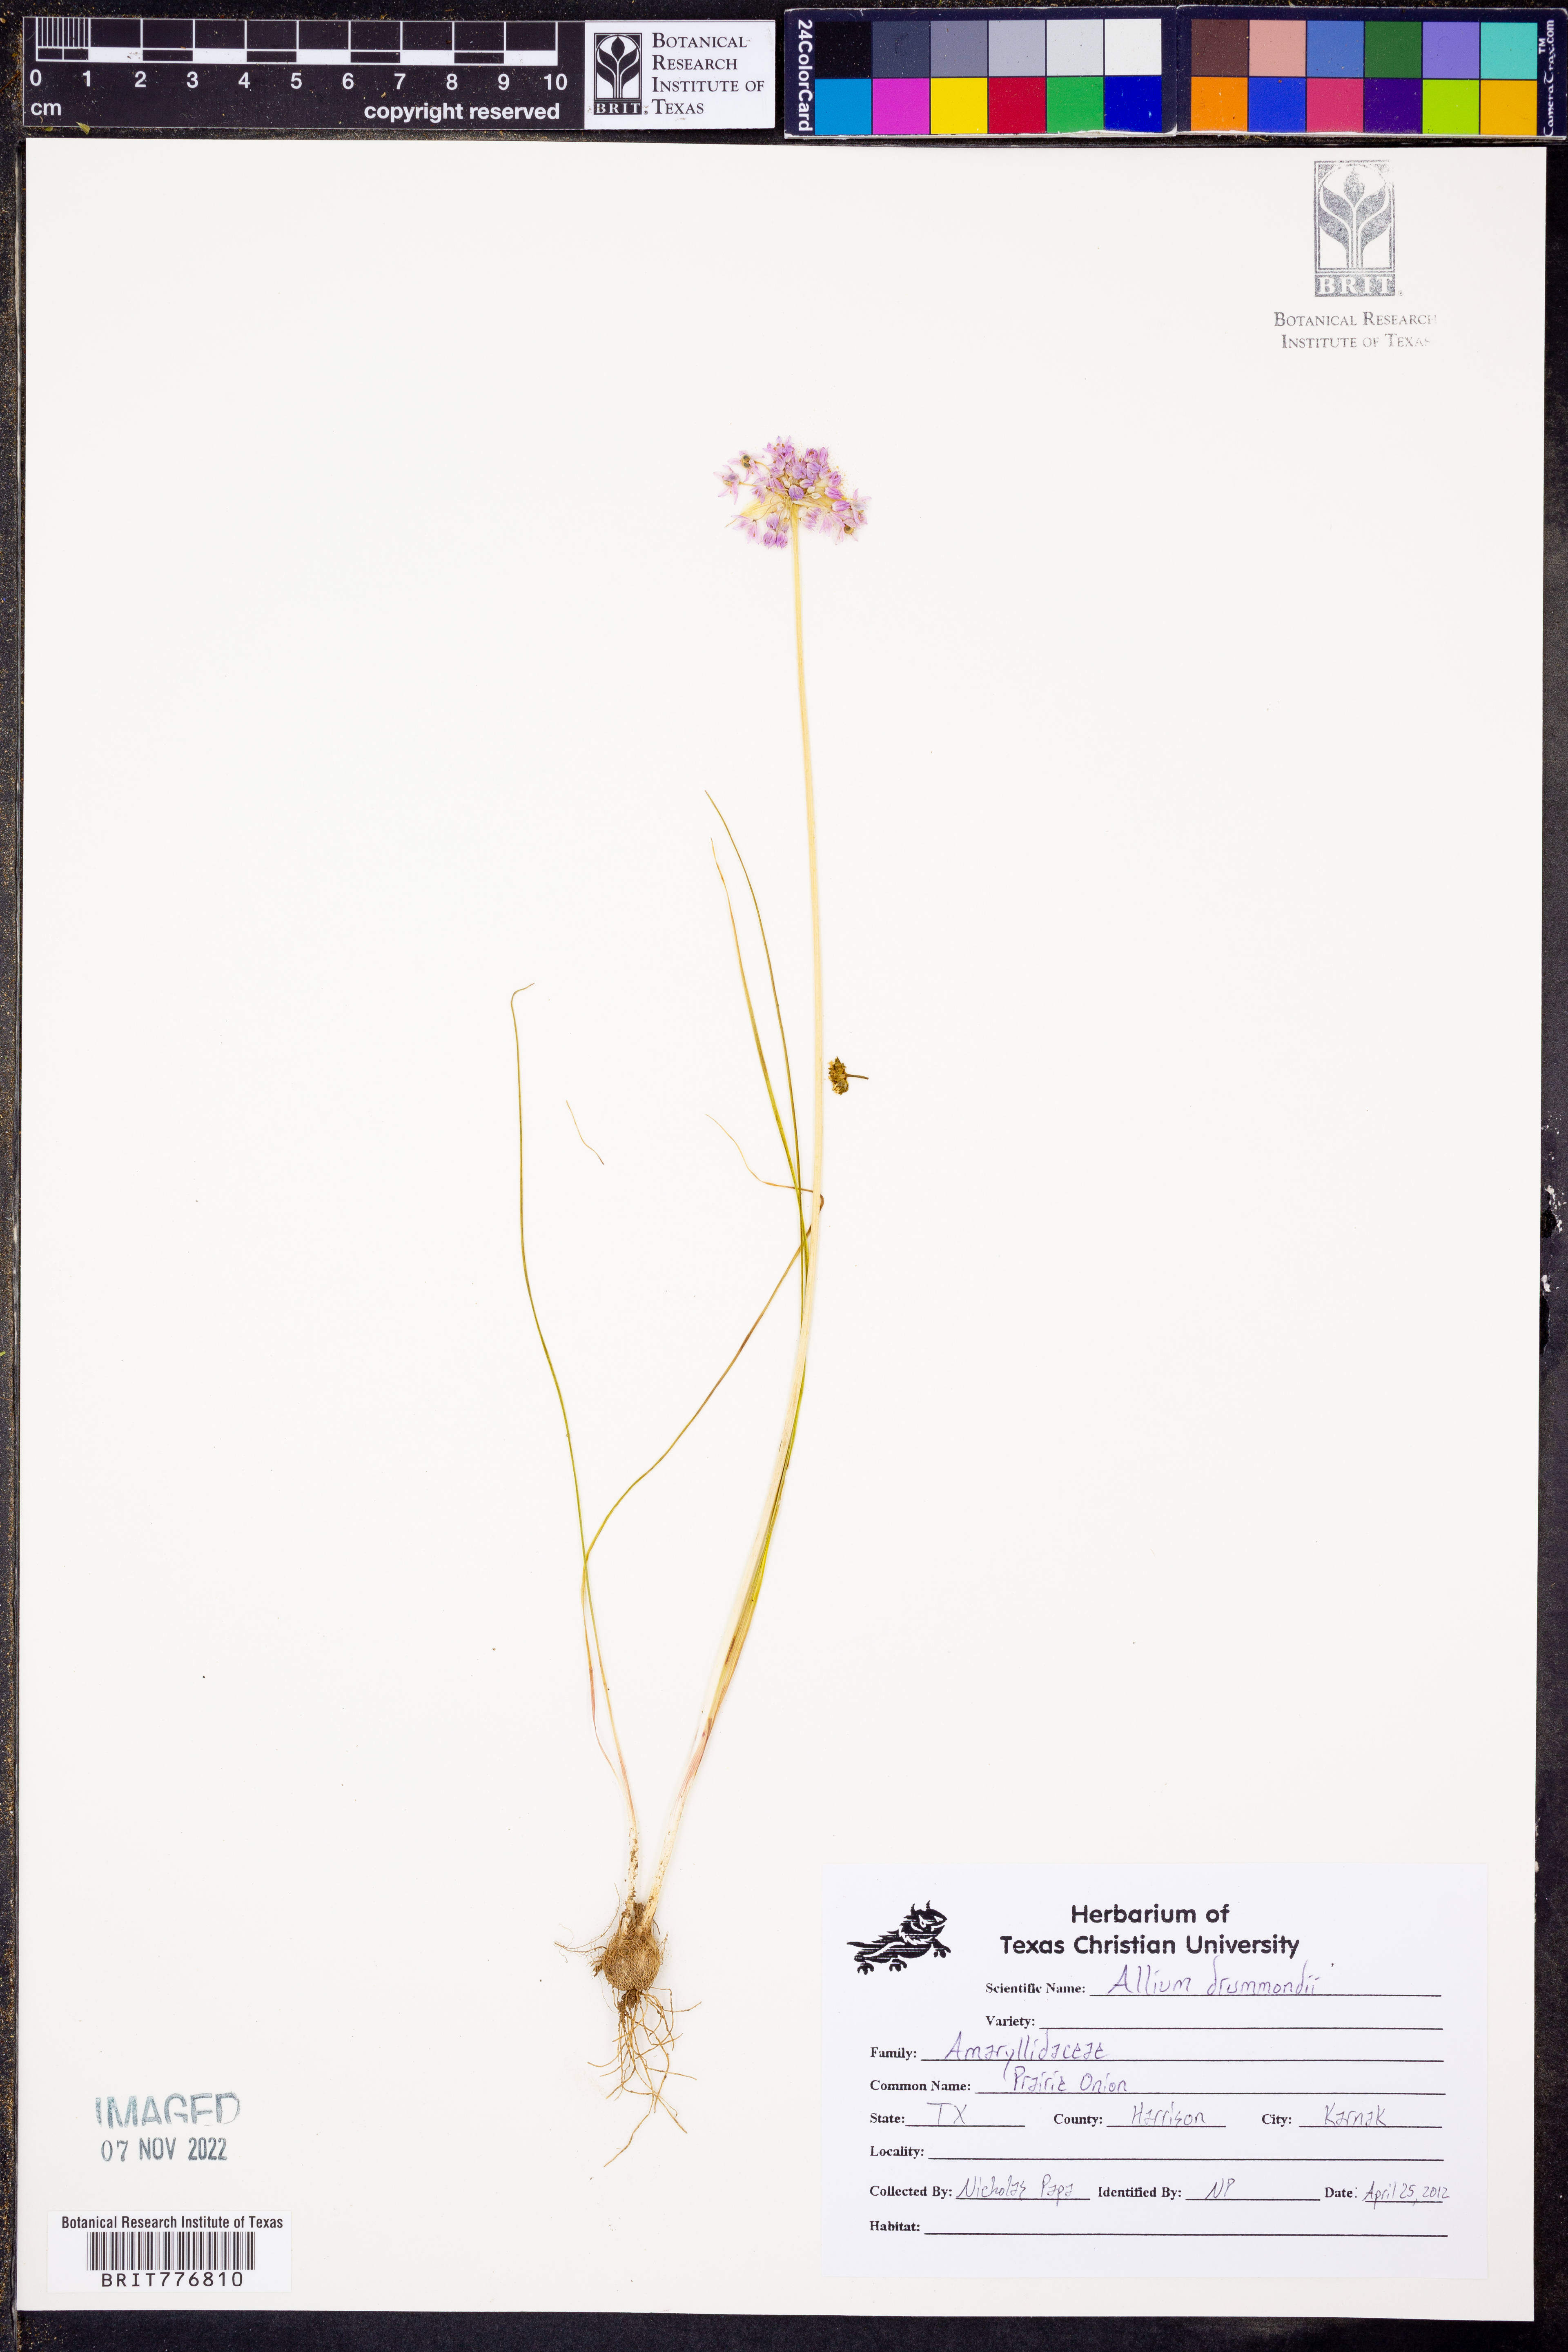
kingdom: Plantae
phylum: Tracheophyta
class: Liliopsida
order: Asparagales
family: Amaryllidaceae
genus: Allium
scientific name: Allium drummondii
